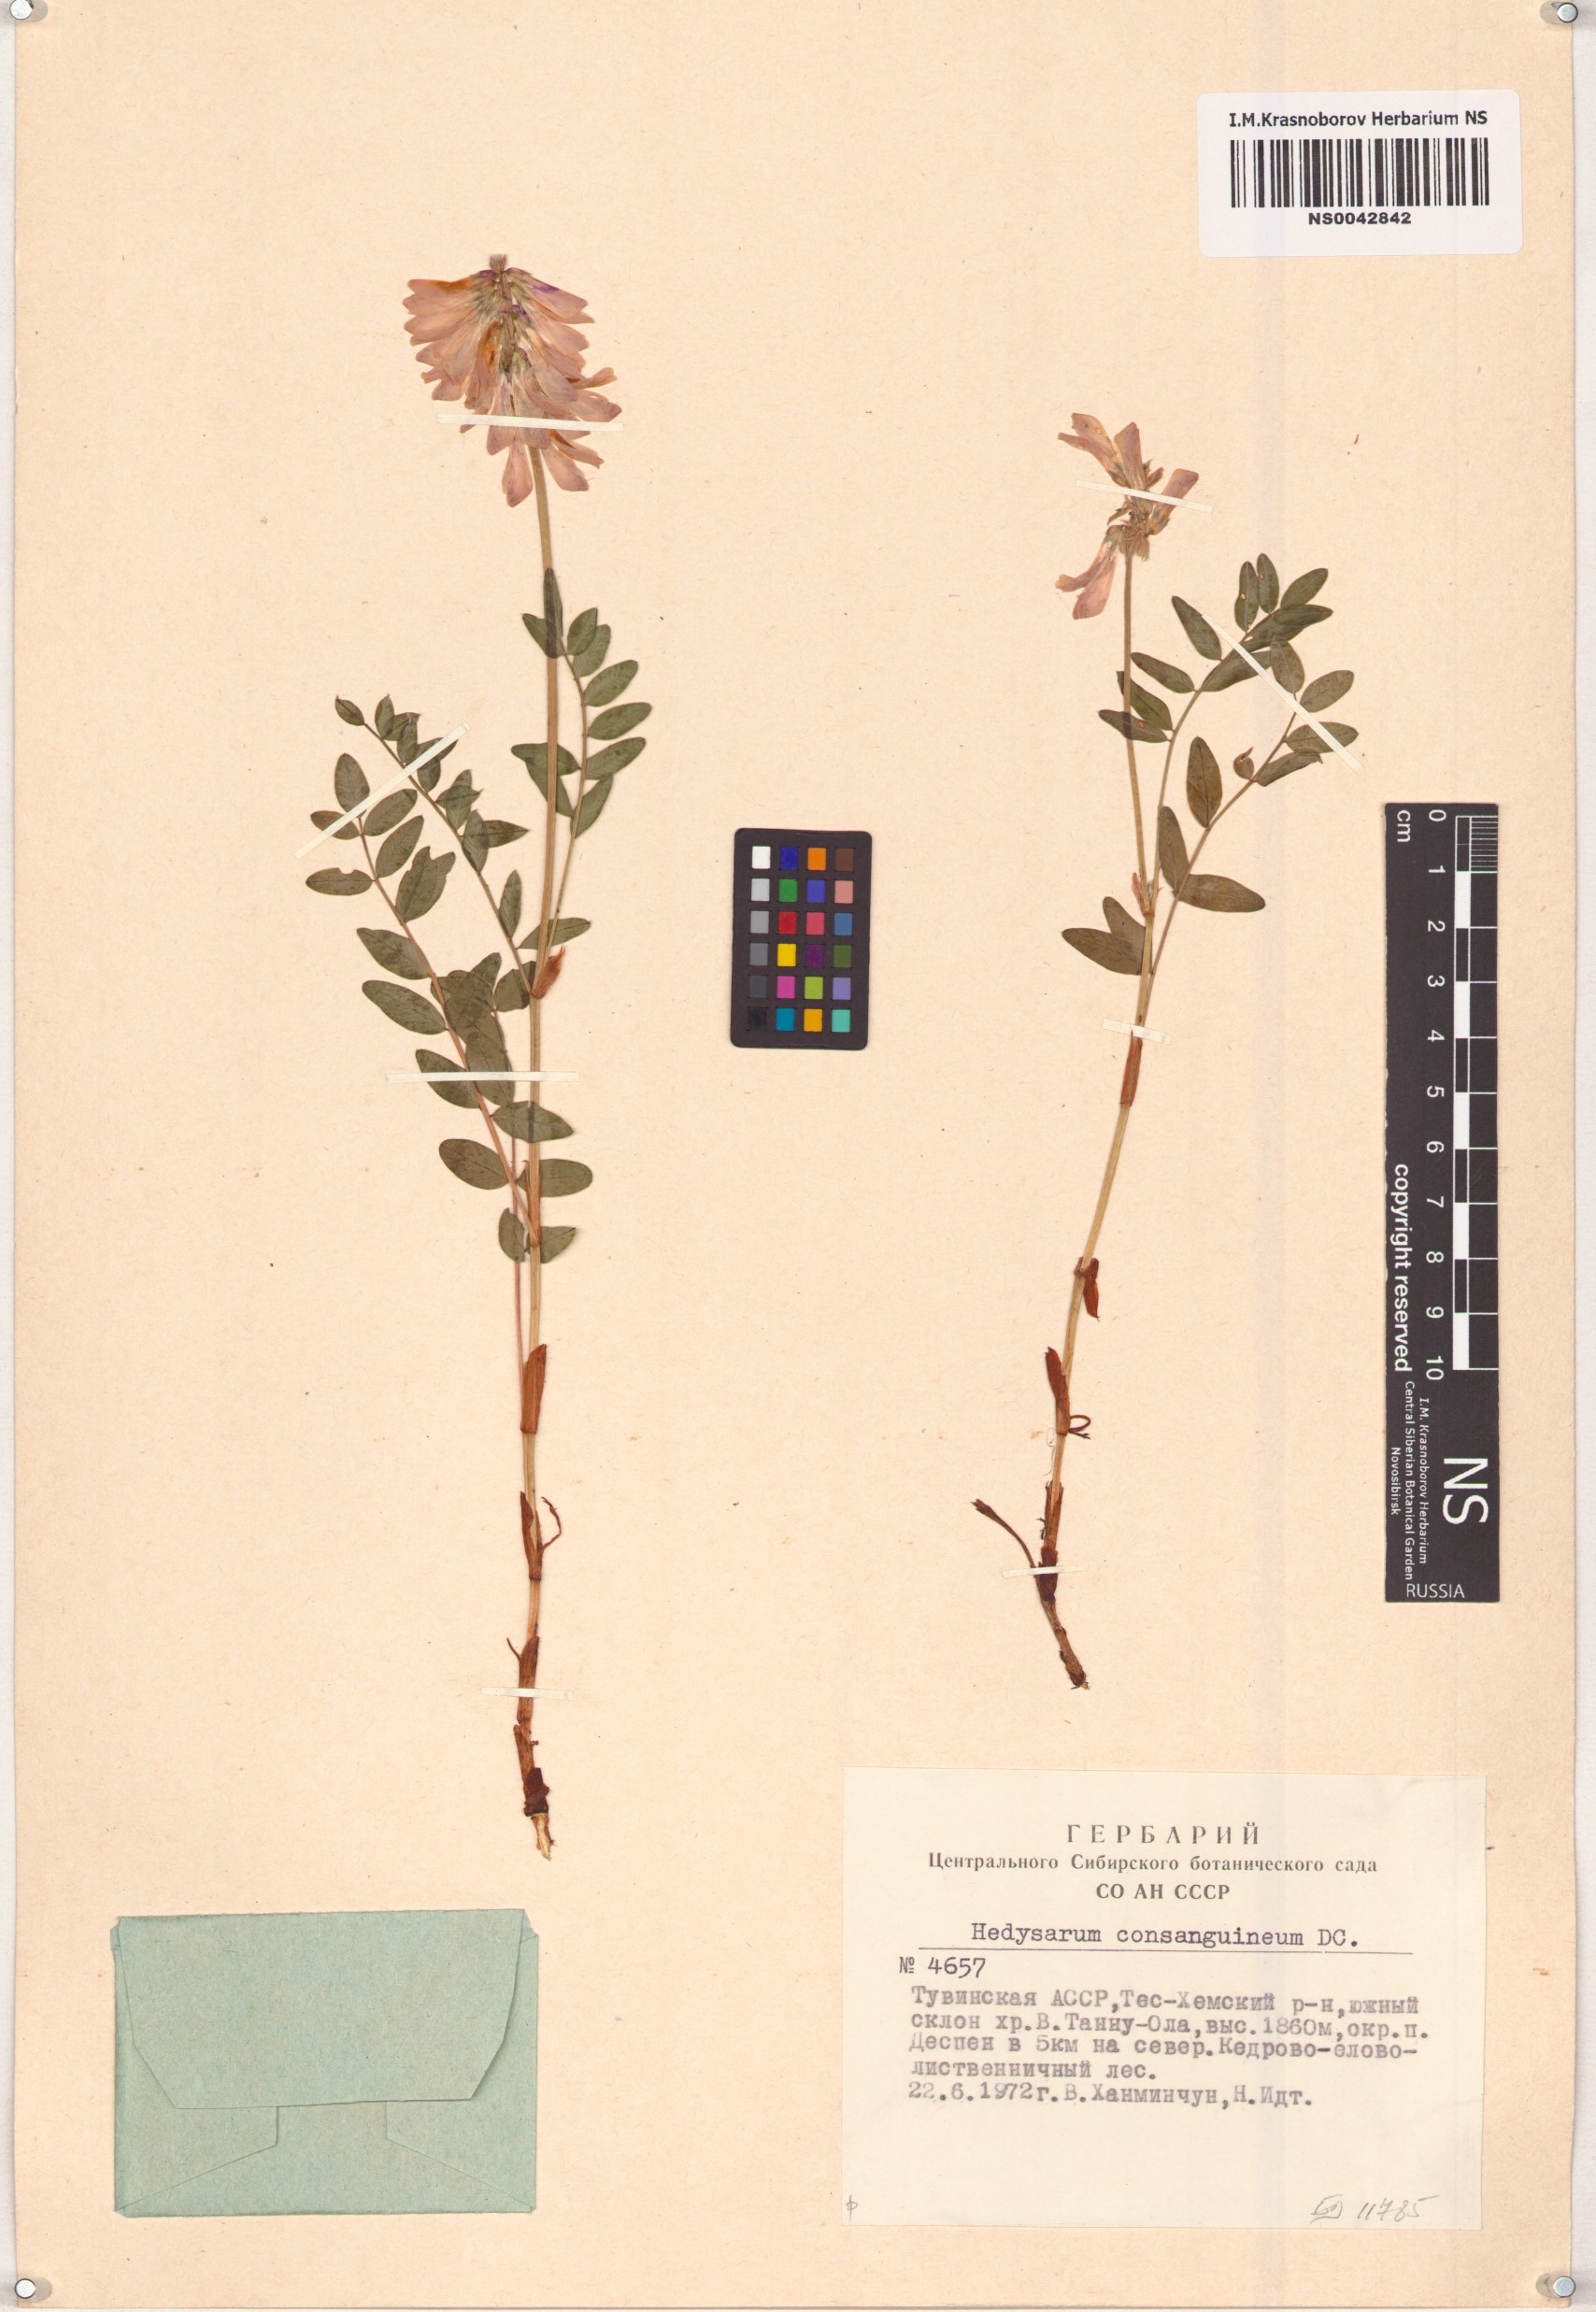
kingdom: Plantae
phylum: Tracheophyta
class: Magnoliopsida
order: Fabales
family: Fabaceae
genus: Hedysarum
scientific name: Hedysarum consanguineum
